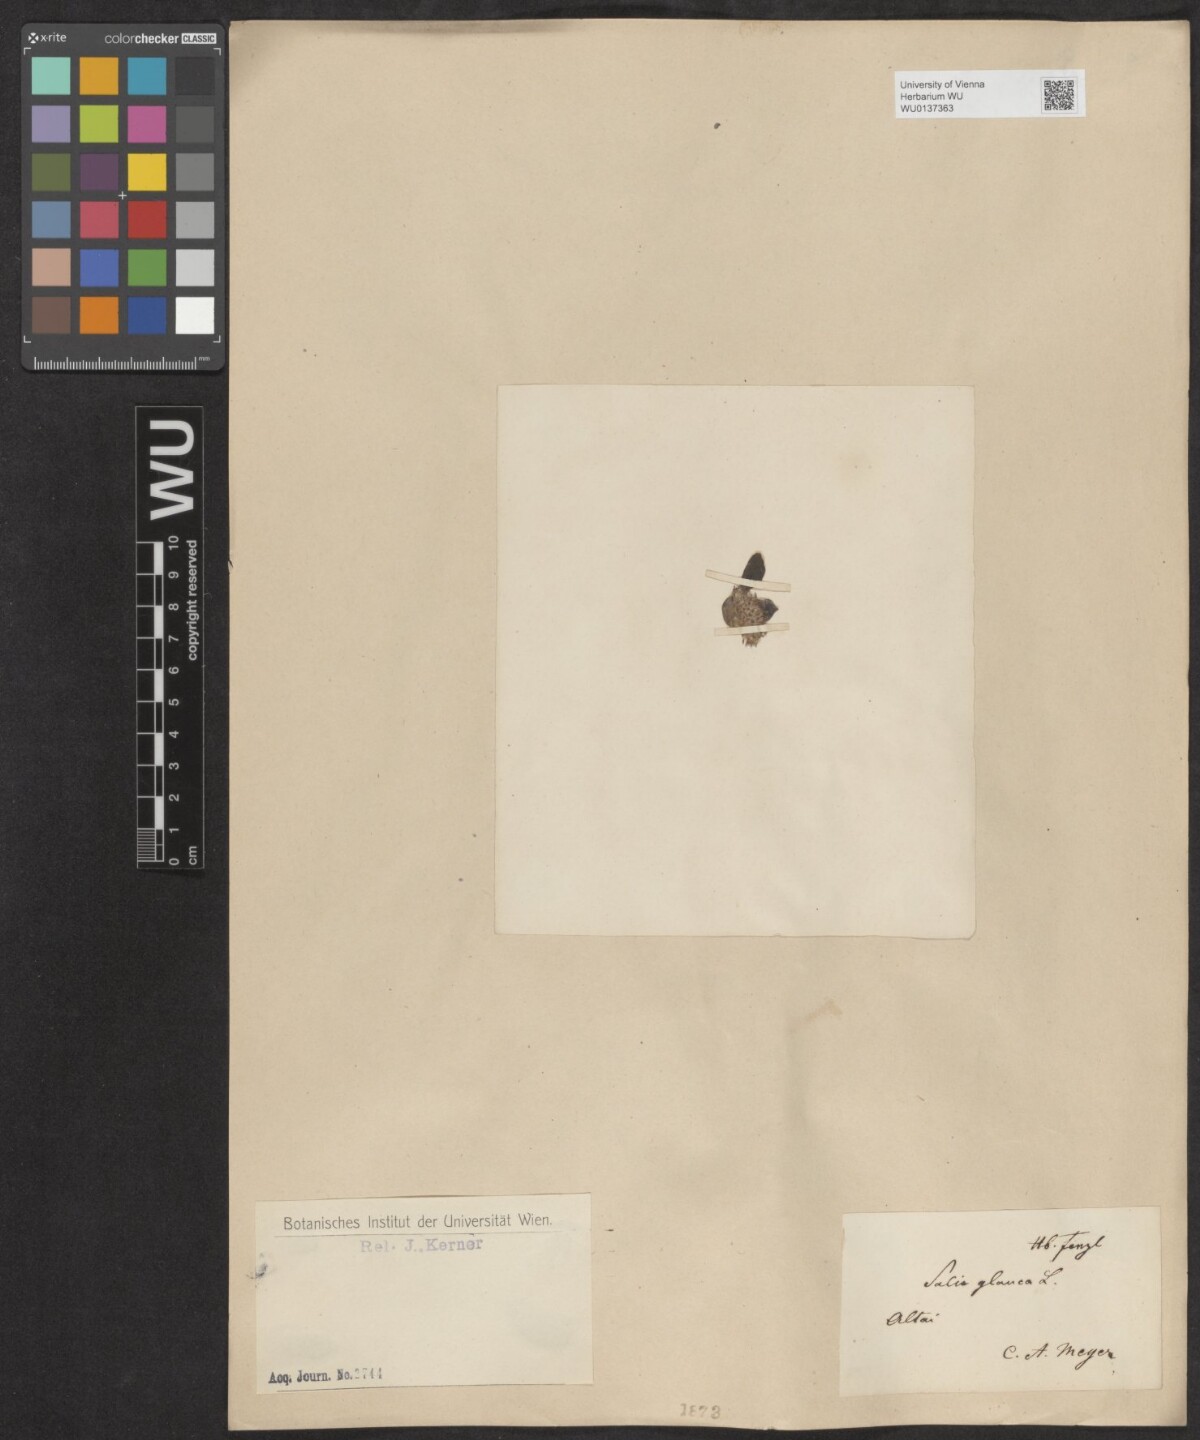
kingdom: Plantae
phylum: Tracheophyta
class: Magnoliopsida
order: Malpighiales
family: Salicaceae
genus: Salix
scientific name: Salix glauca
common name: Glaucous willow
